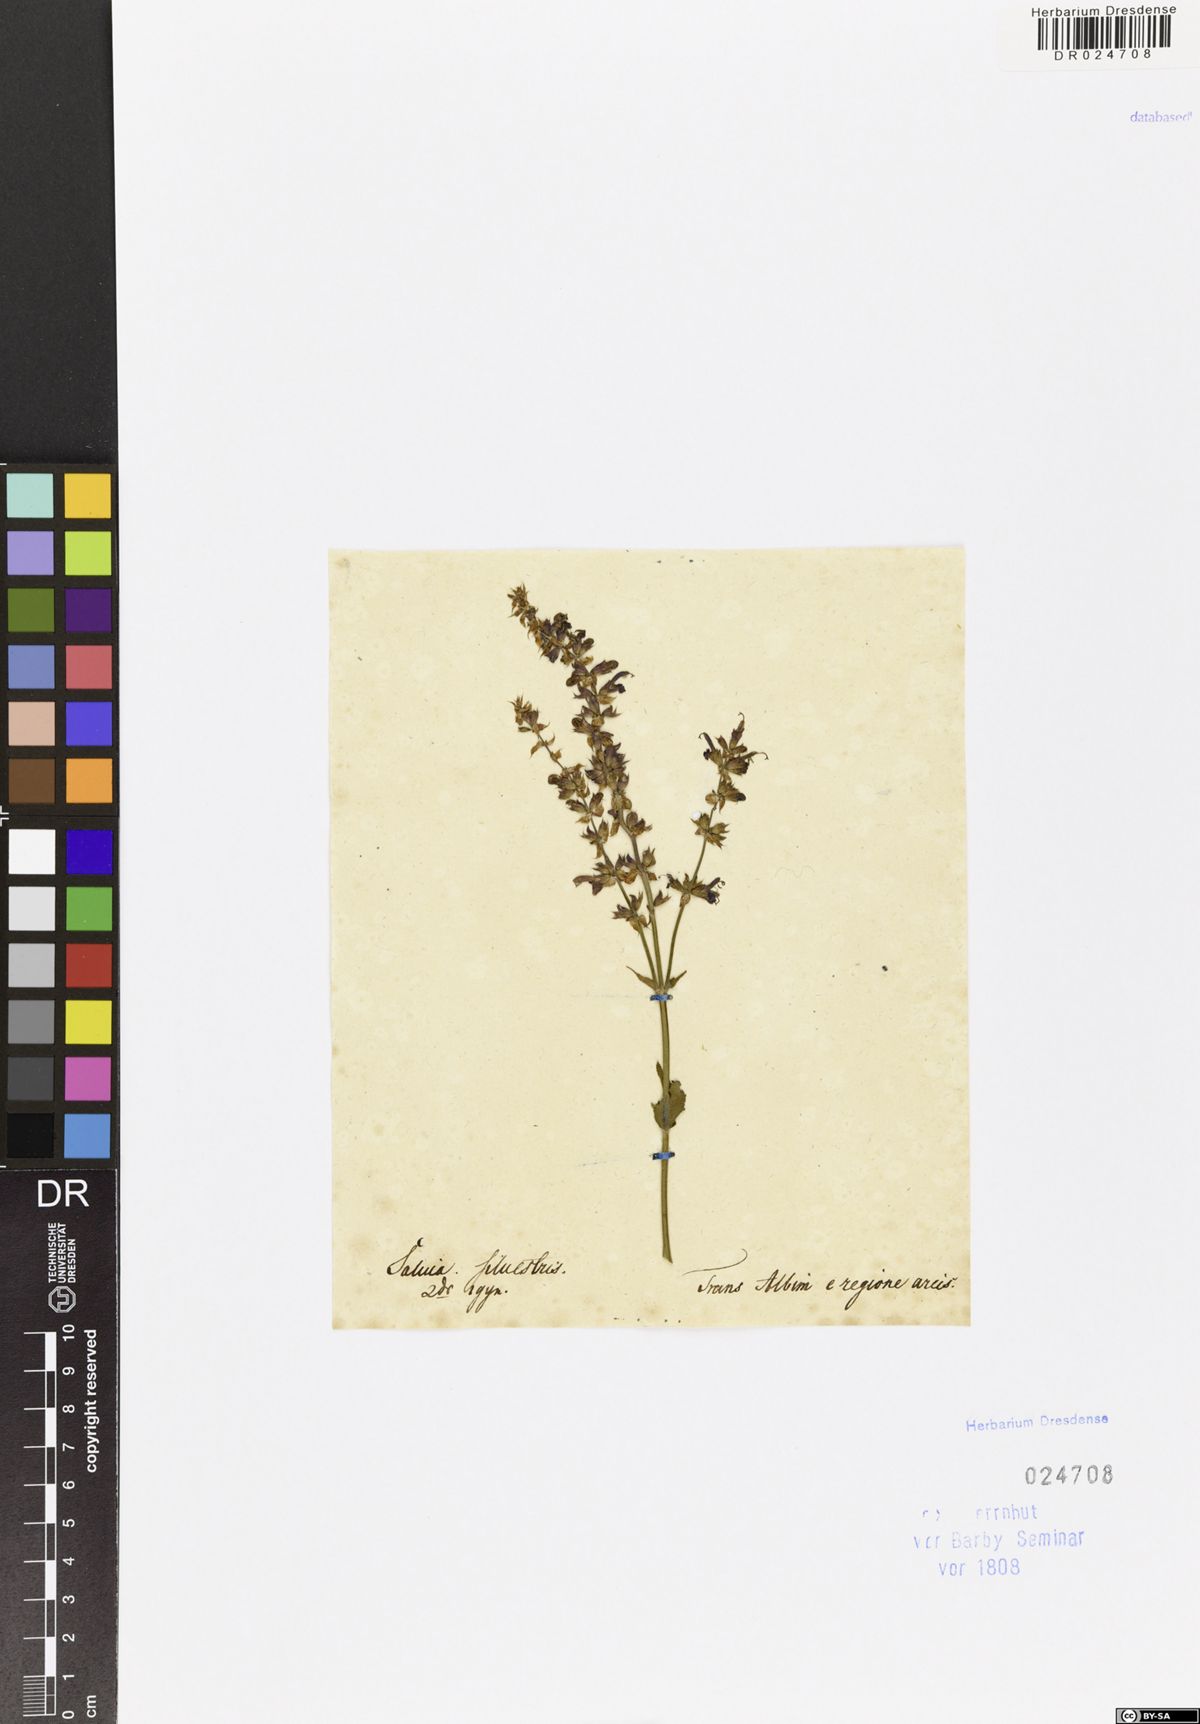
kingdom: Plantae
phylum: Tracheophyta
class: Magnoliopsida
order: Lamiales
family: Lamiaceae
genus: Salvia
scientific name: Salvia nemorosa
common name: Balkan clary
